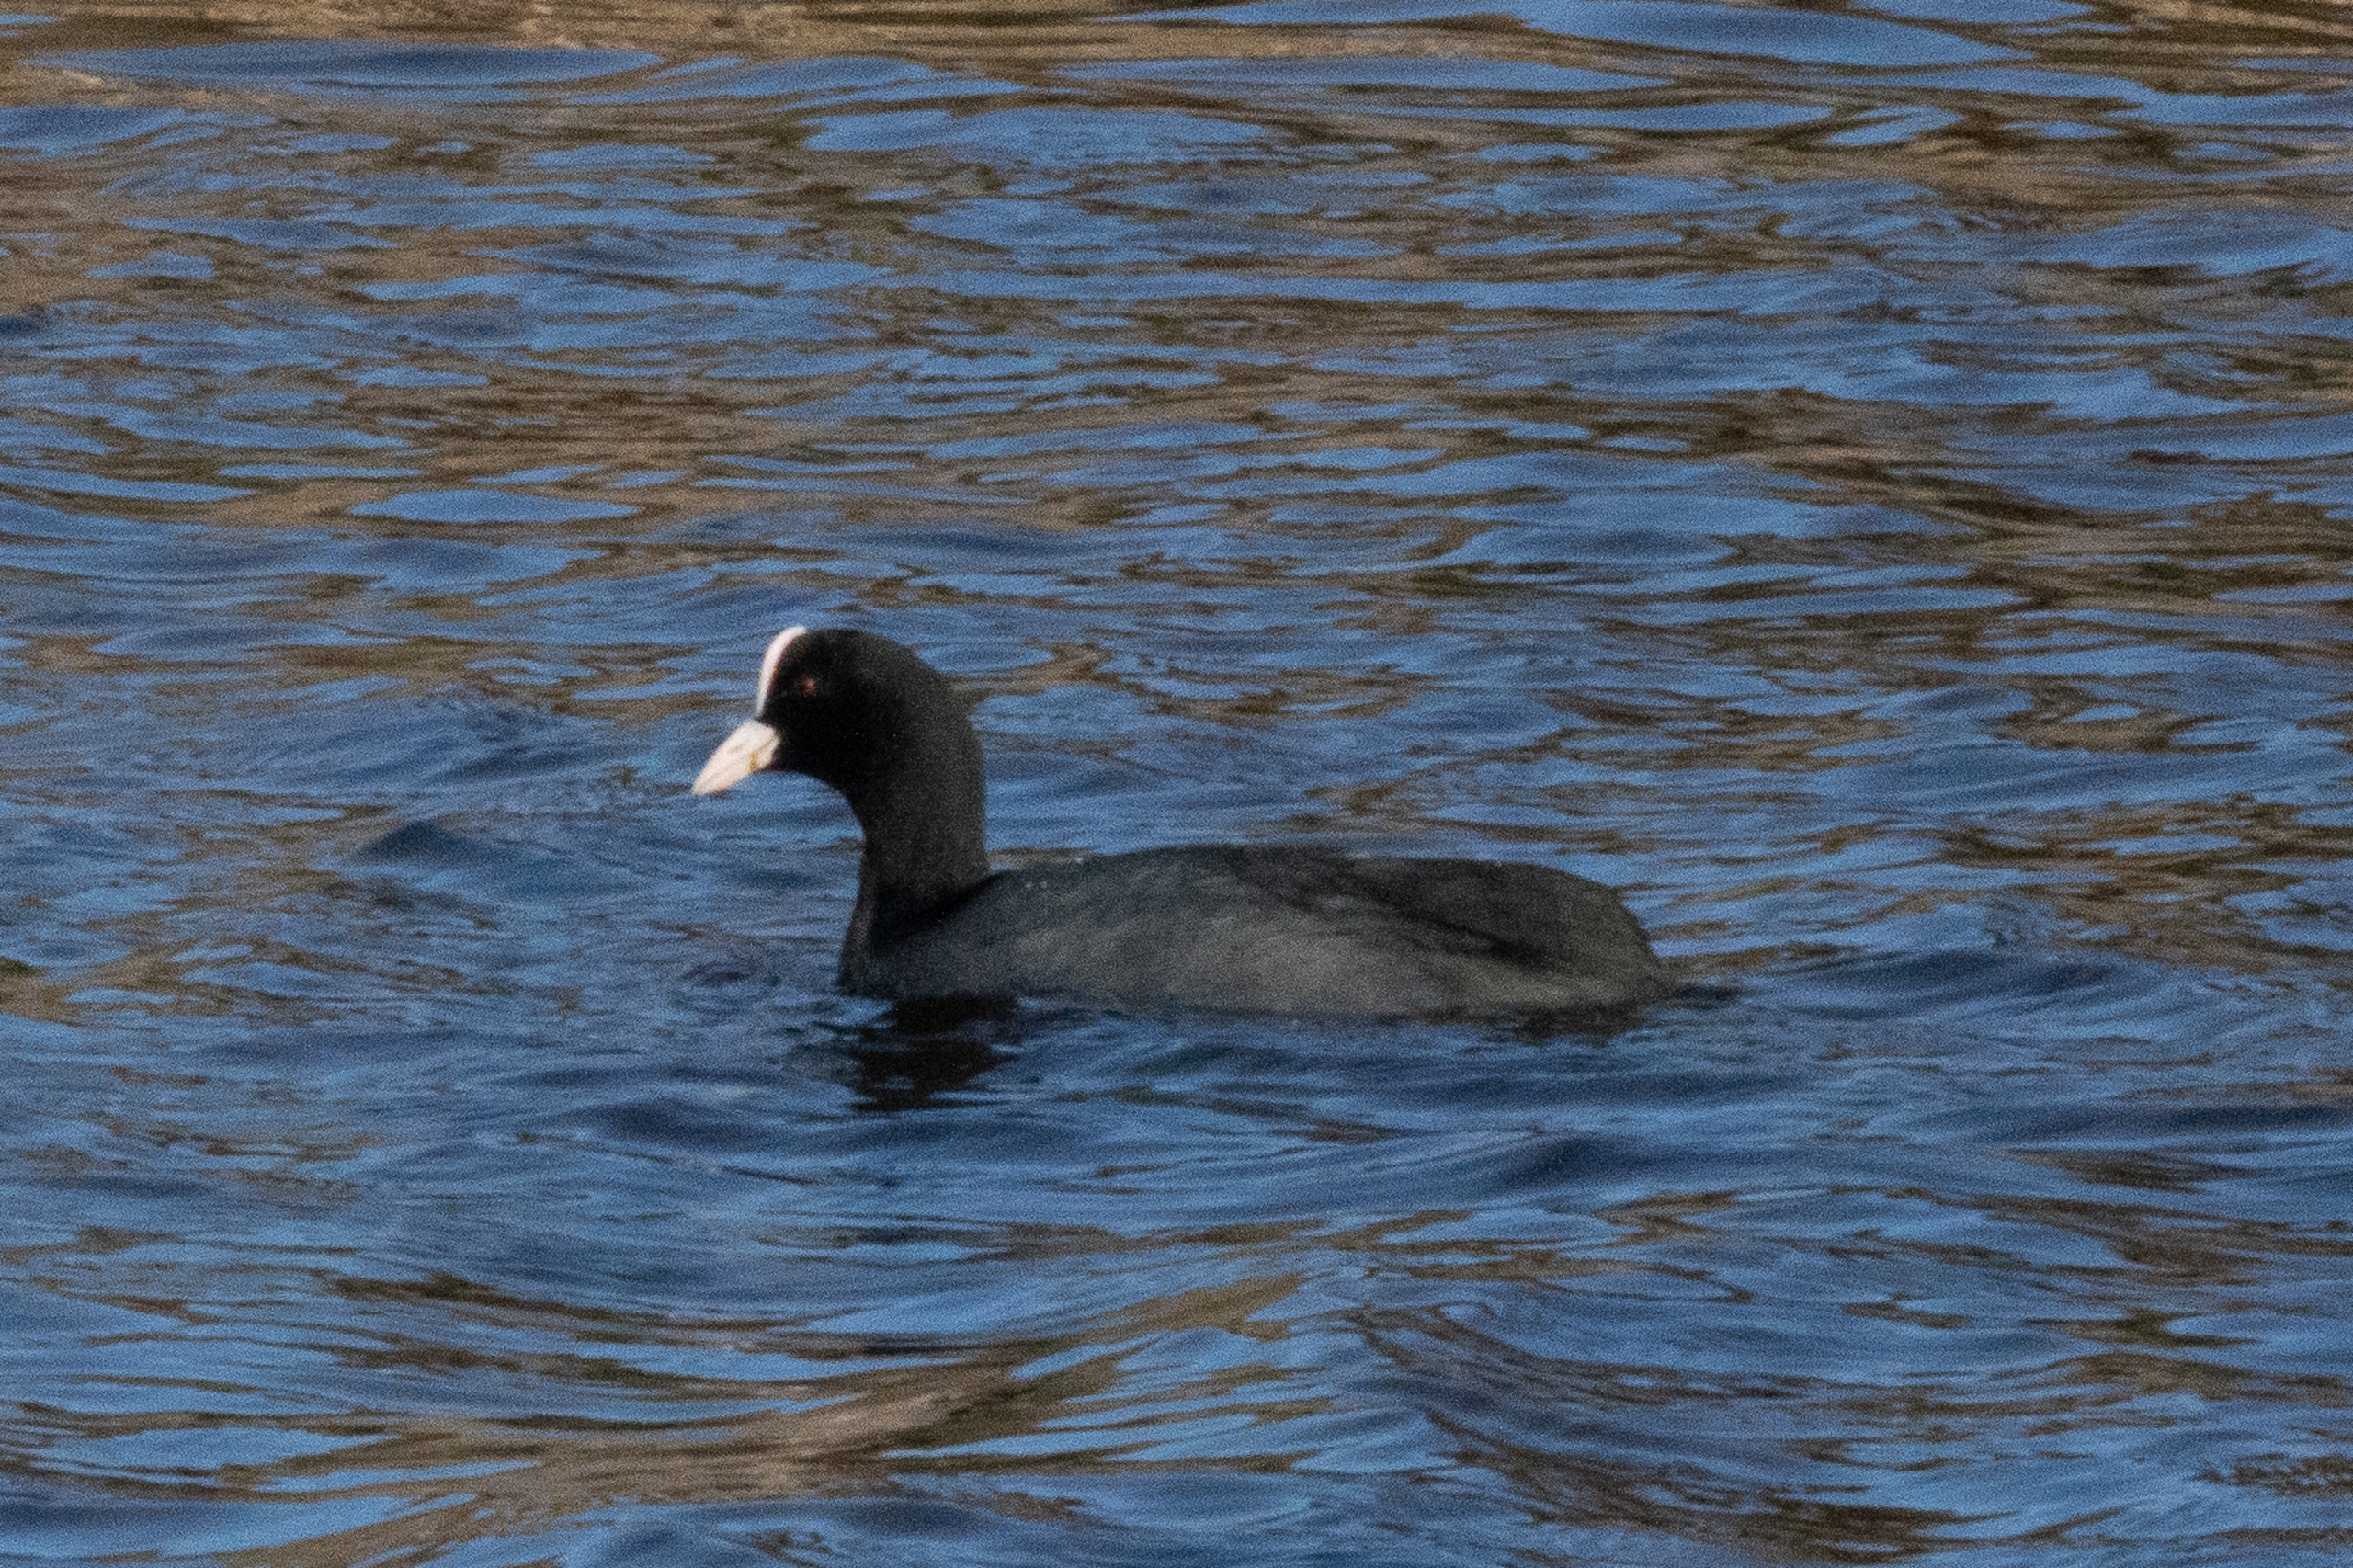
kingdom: Animalia
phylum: Chordata
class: Aves
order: Gruiformes
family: Rallidae
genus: Fulica
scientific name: Fulica atra
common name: Blishøne
